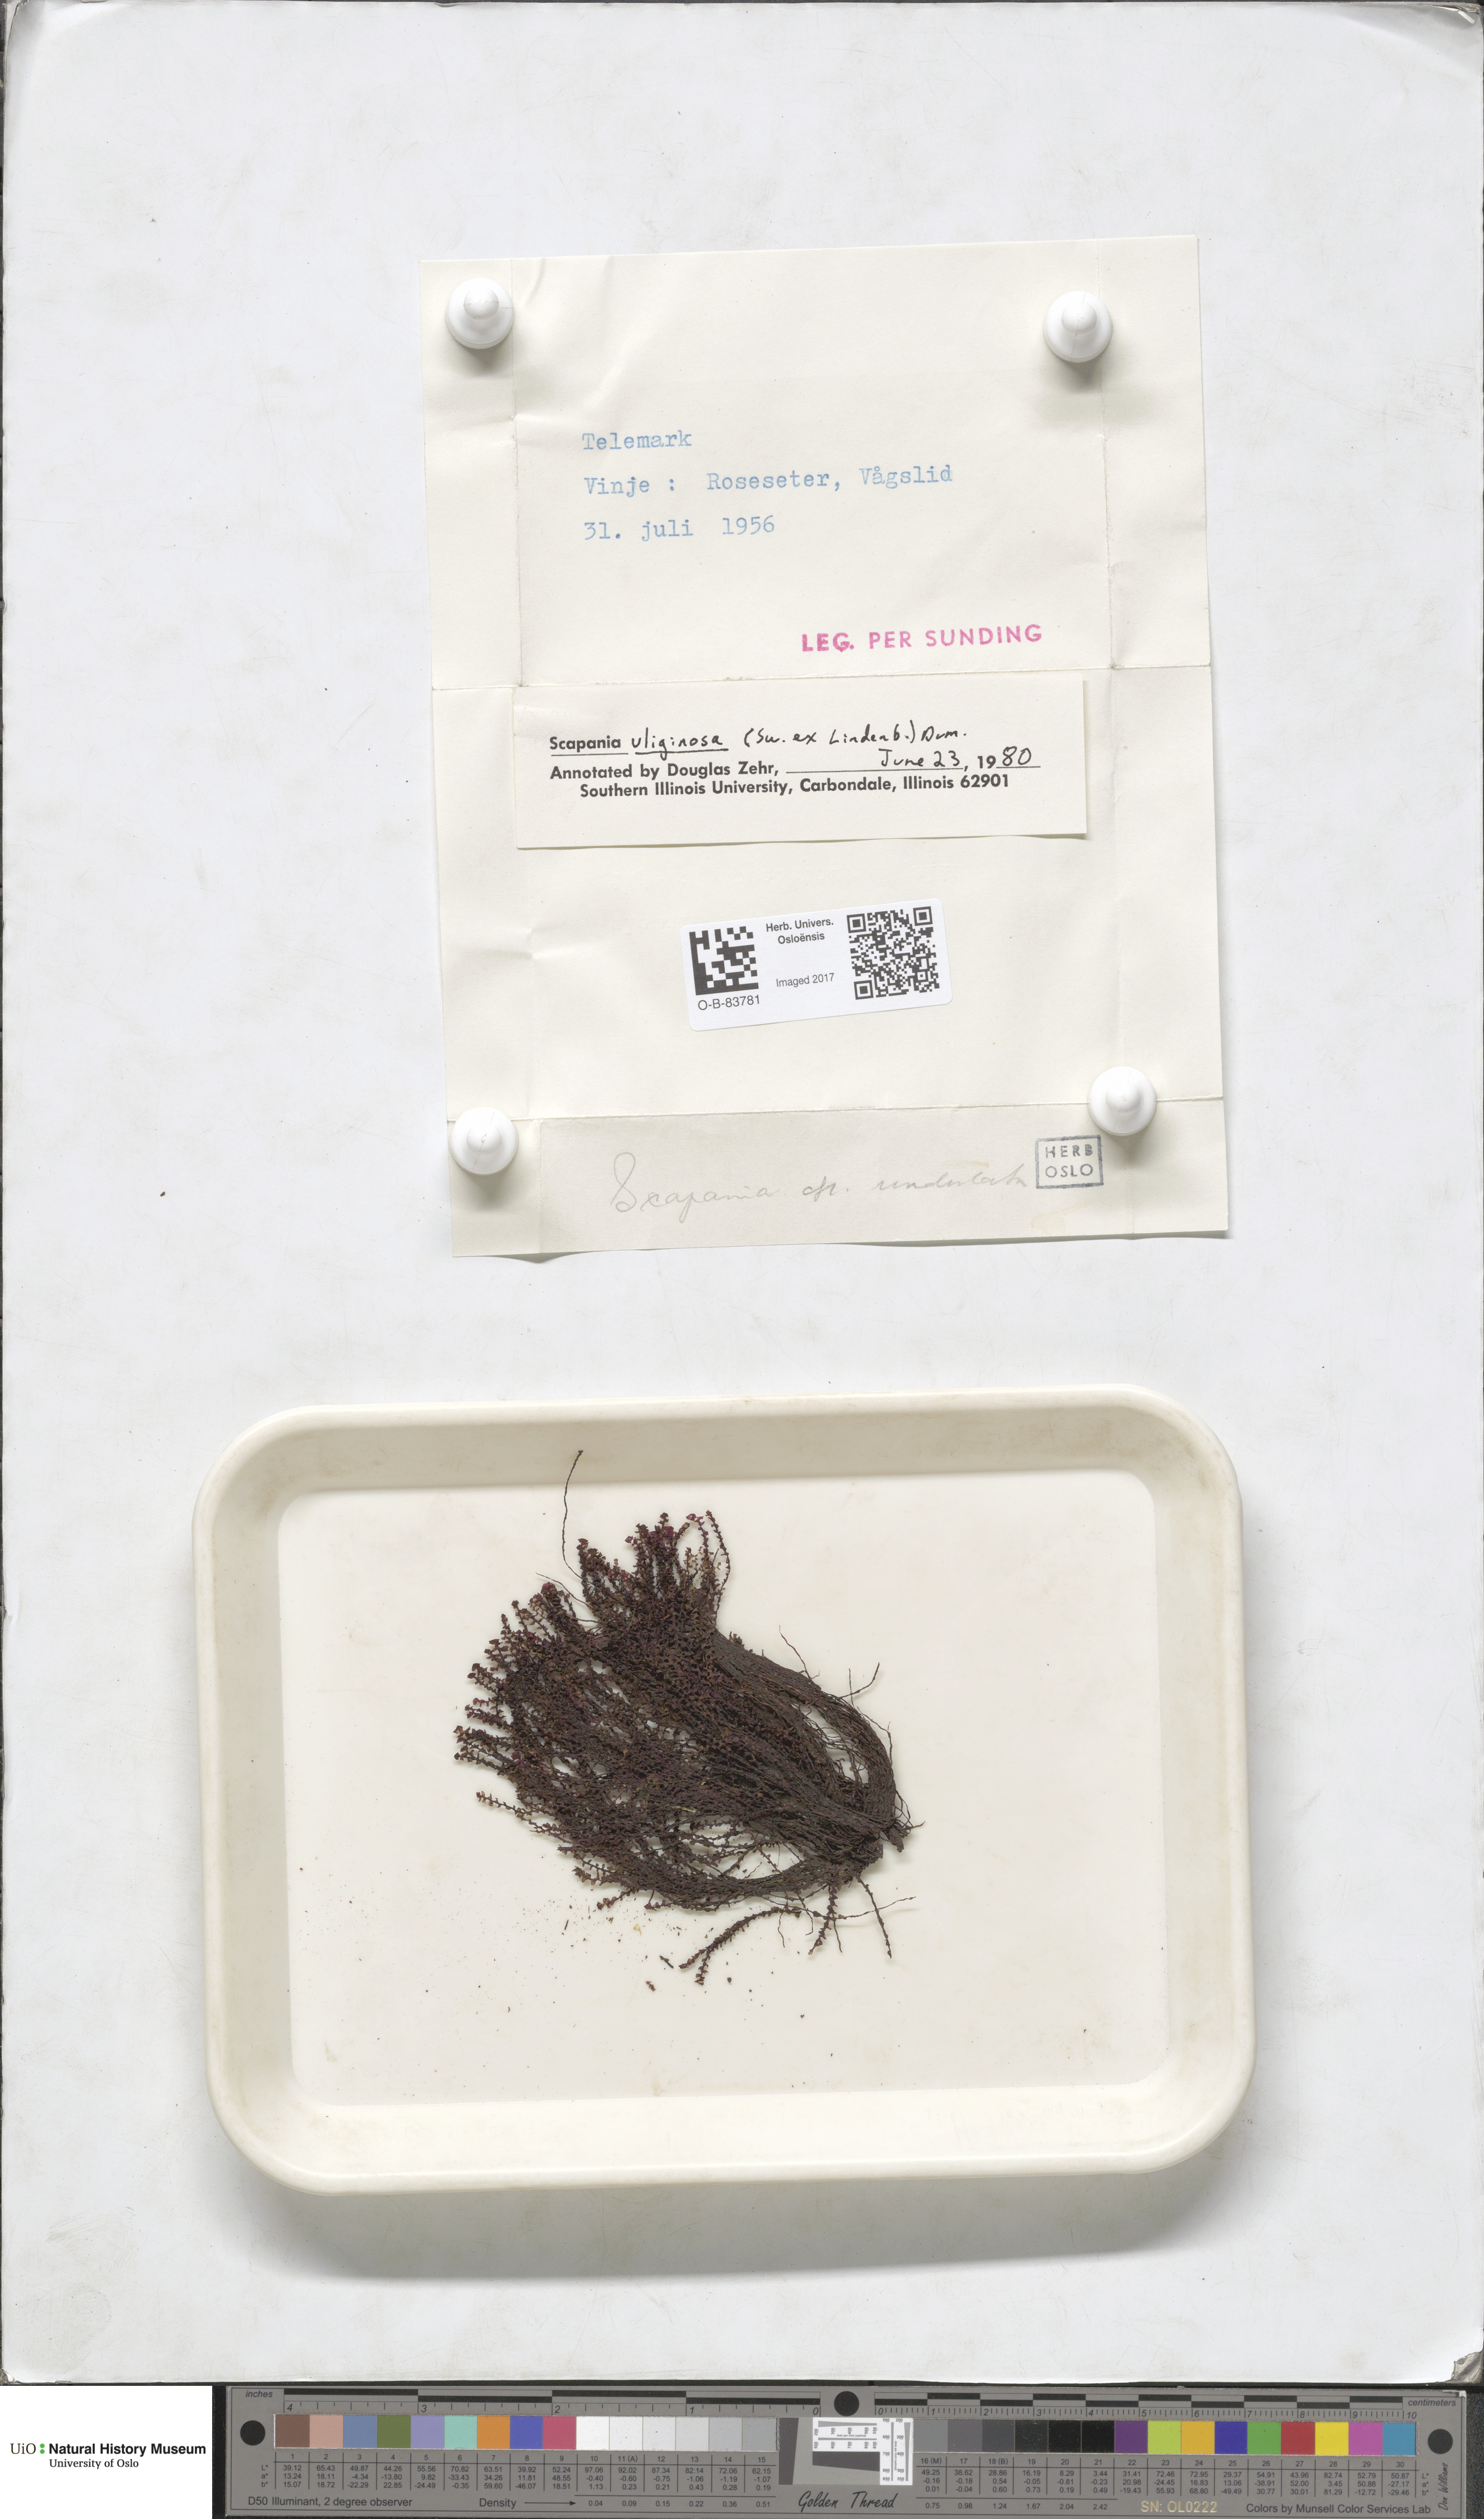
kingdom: Plantae
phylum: Marchantiophyta
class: Jungermanniopsida
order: Jungermanniales
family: Scapaniaceae
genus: Scapania
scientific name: Scapania uliginosa
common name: Marsh earwort
